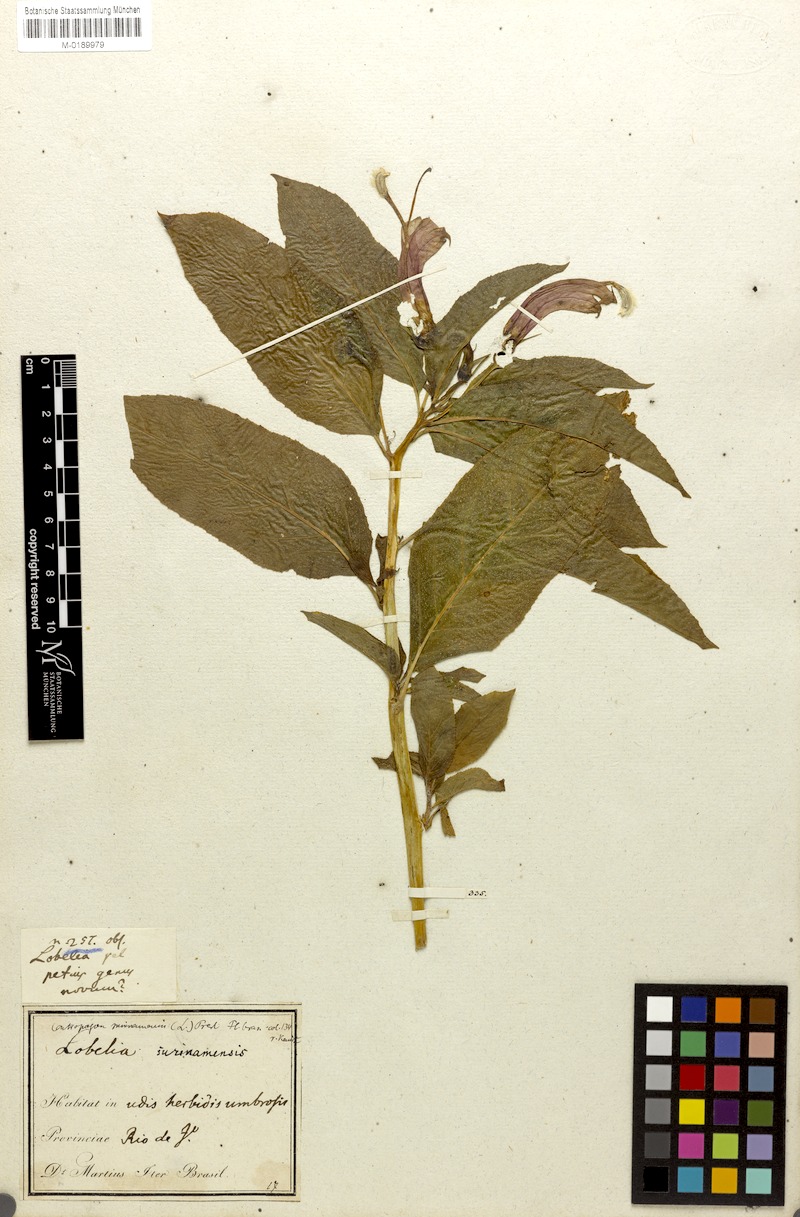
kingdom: Plantae
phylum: Tracheophyta
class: Magnoliopsida
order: Asterales
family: Campanulaceae
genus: Centropogon
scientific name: Centropogon cornutus
